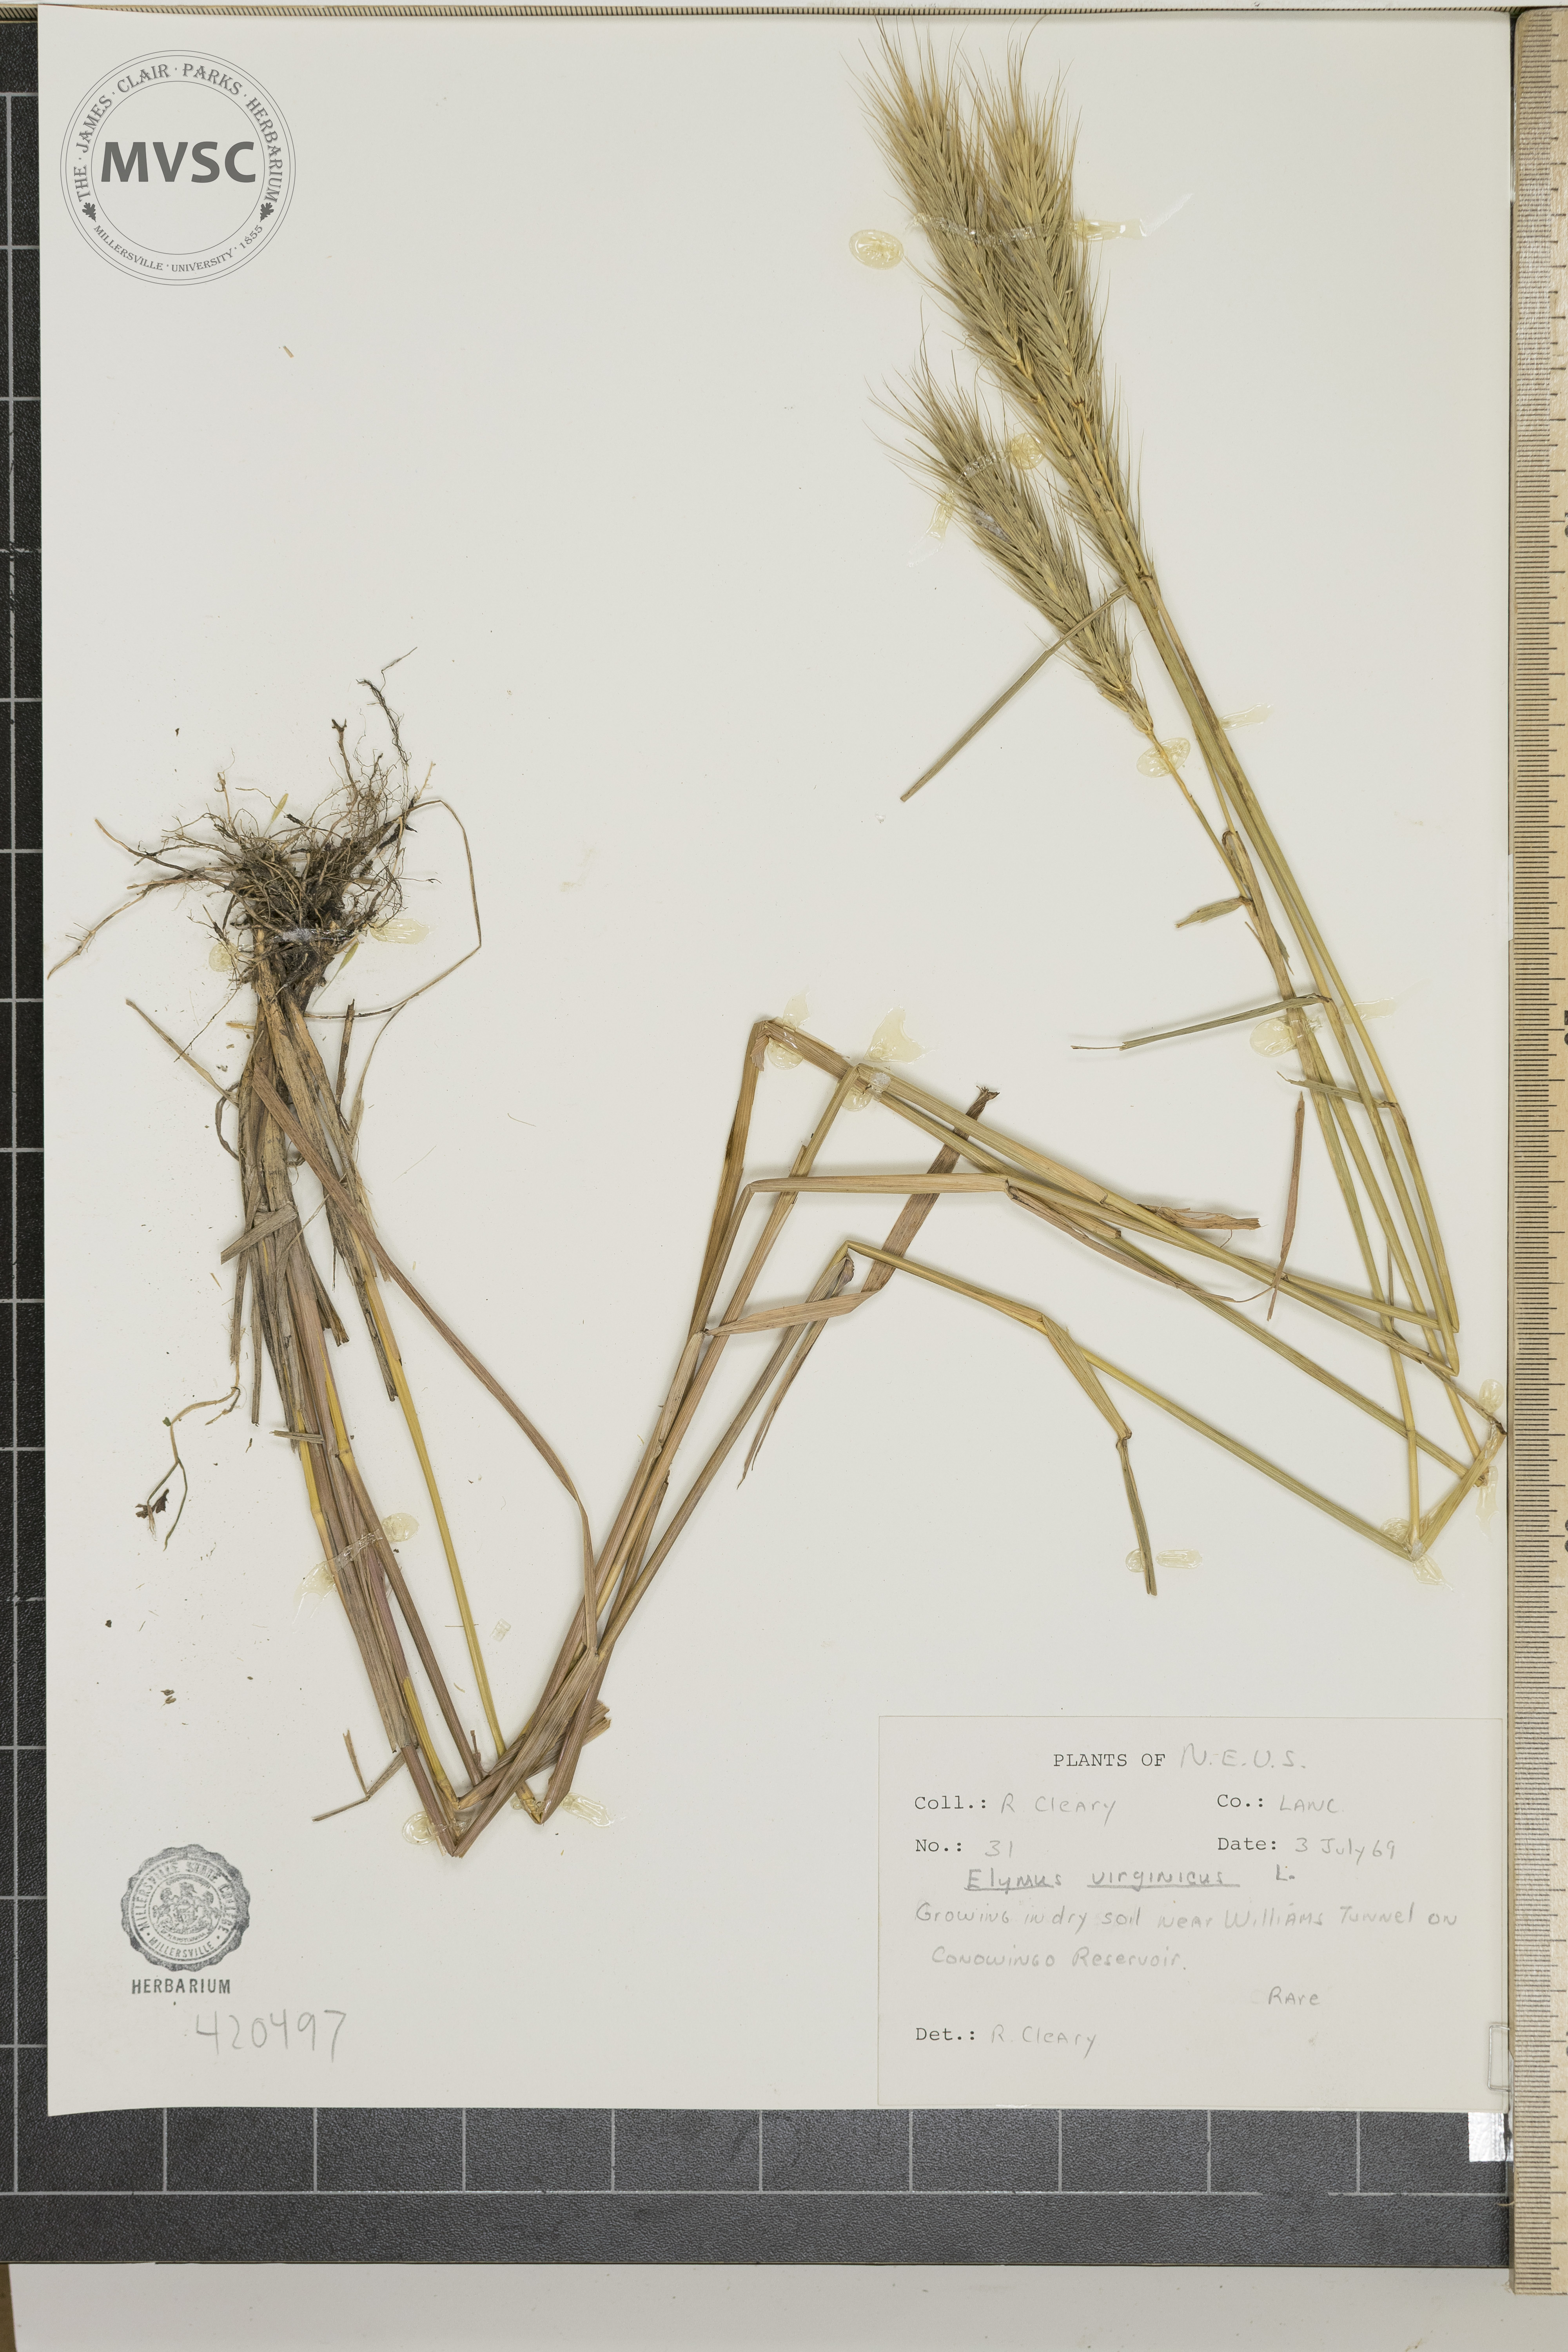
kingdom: Plantae
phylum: Tracheophyta
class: Liliopsida
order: Poales
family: Poaceae
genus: Elymus
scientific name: Elymus virginicus
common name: Virginia wildrye
